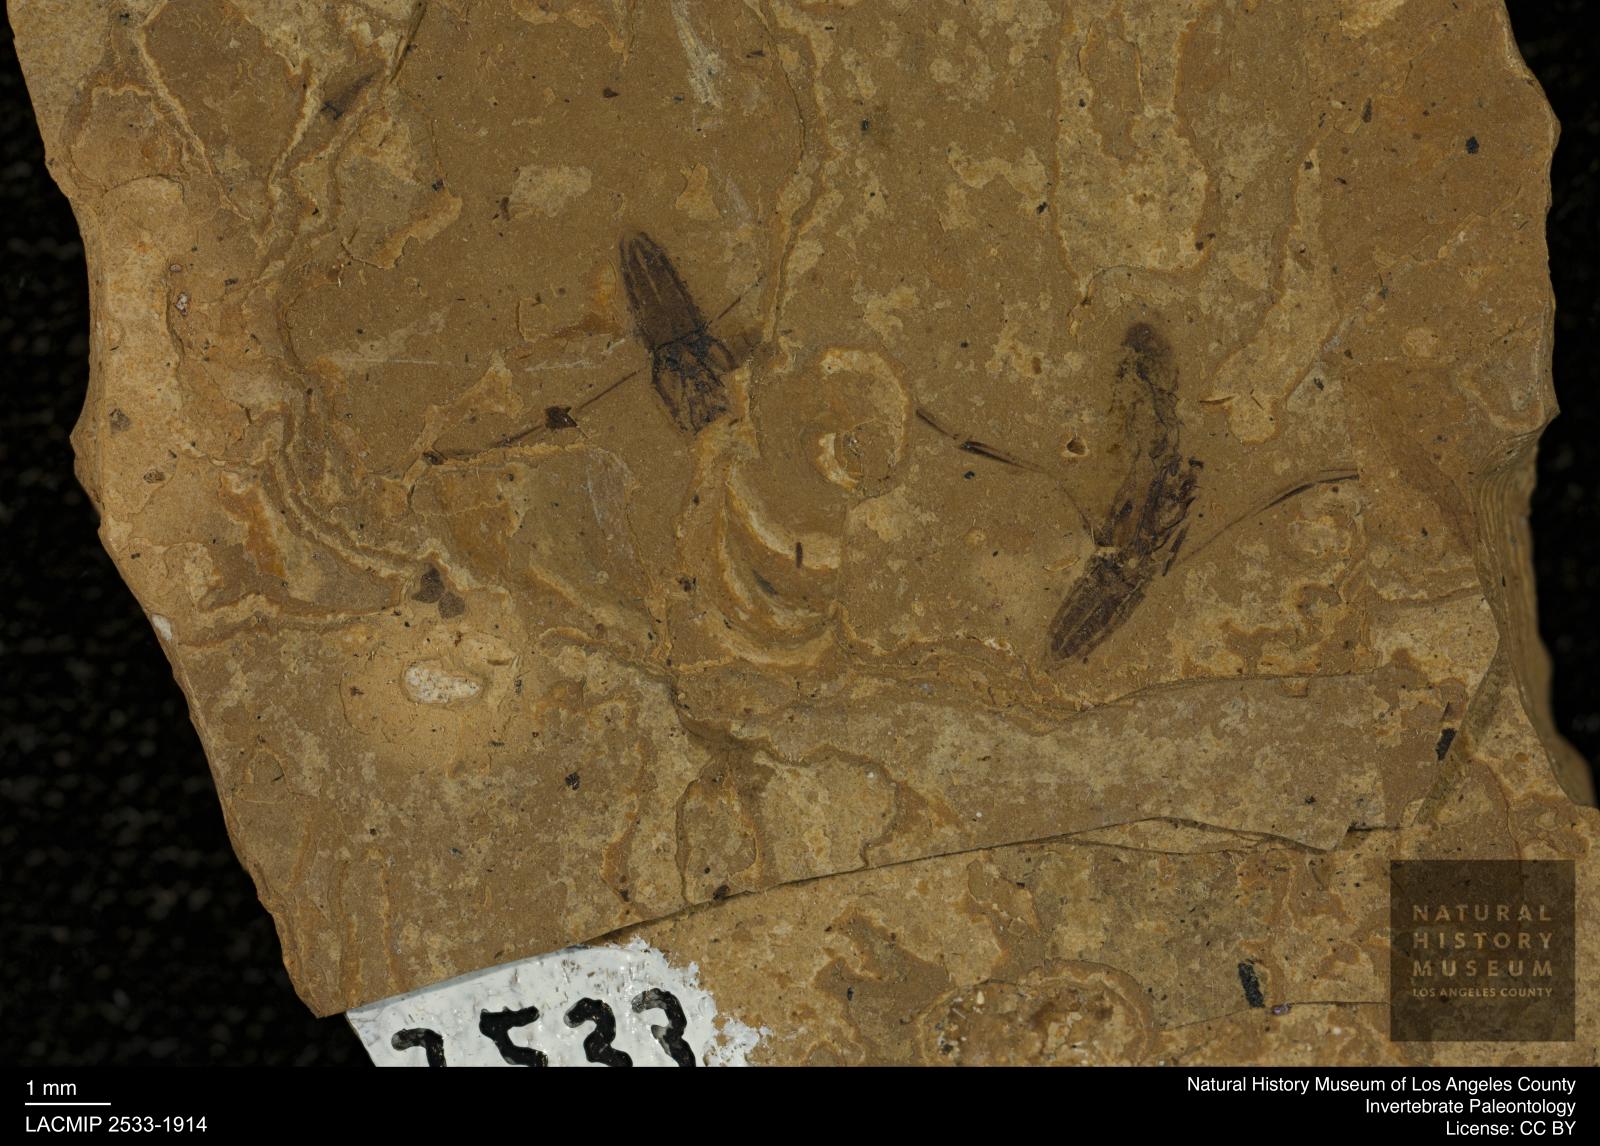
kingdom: Animalia
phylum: Arthropoda
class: Insecta
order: Hemiptera
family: Notonectidae
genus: Notonecta
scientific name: Notonecta
